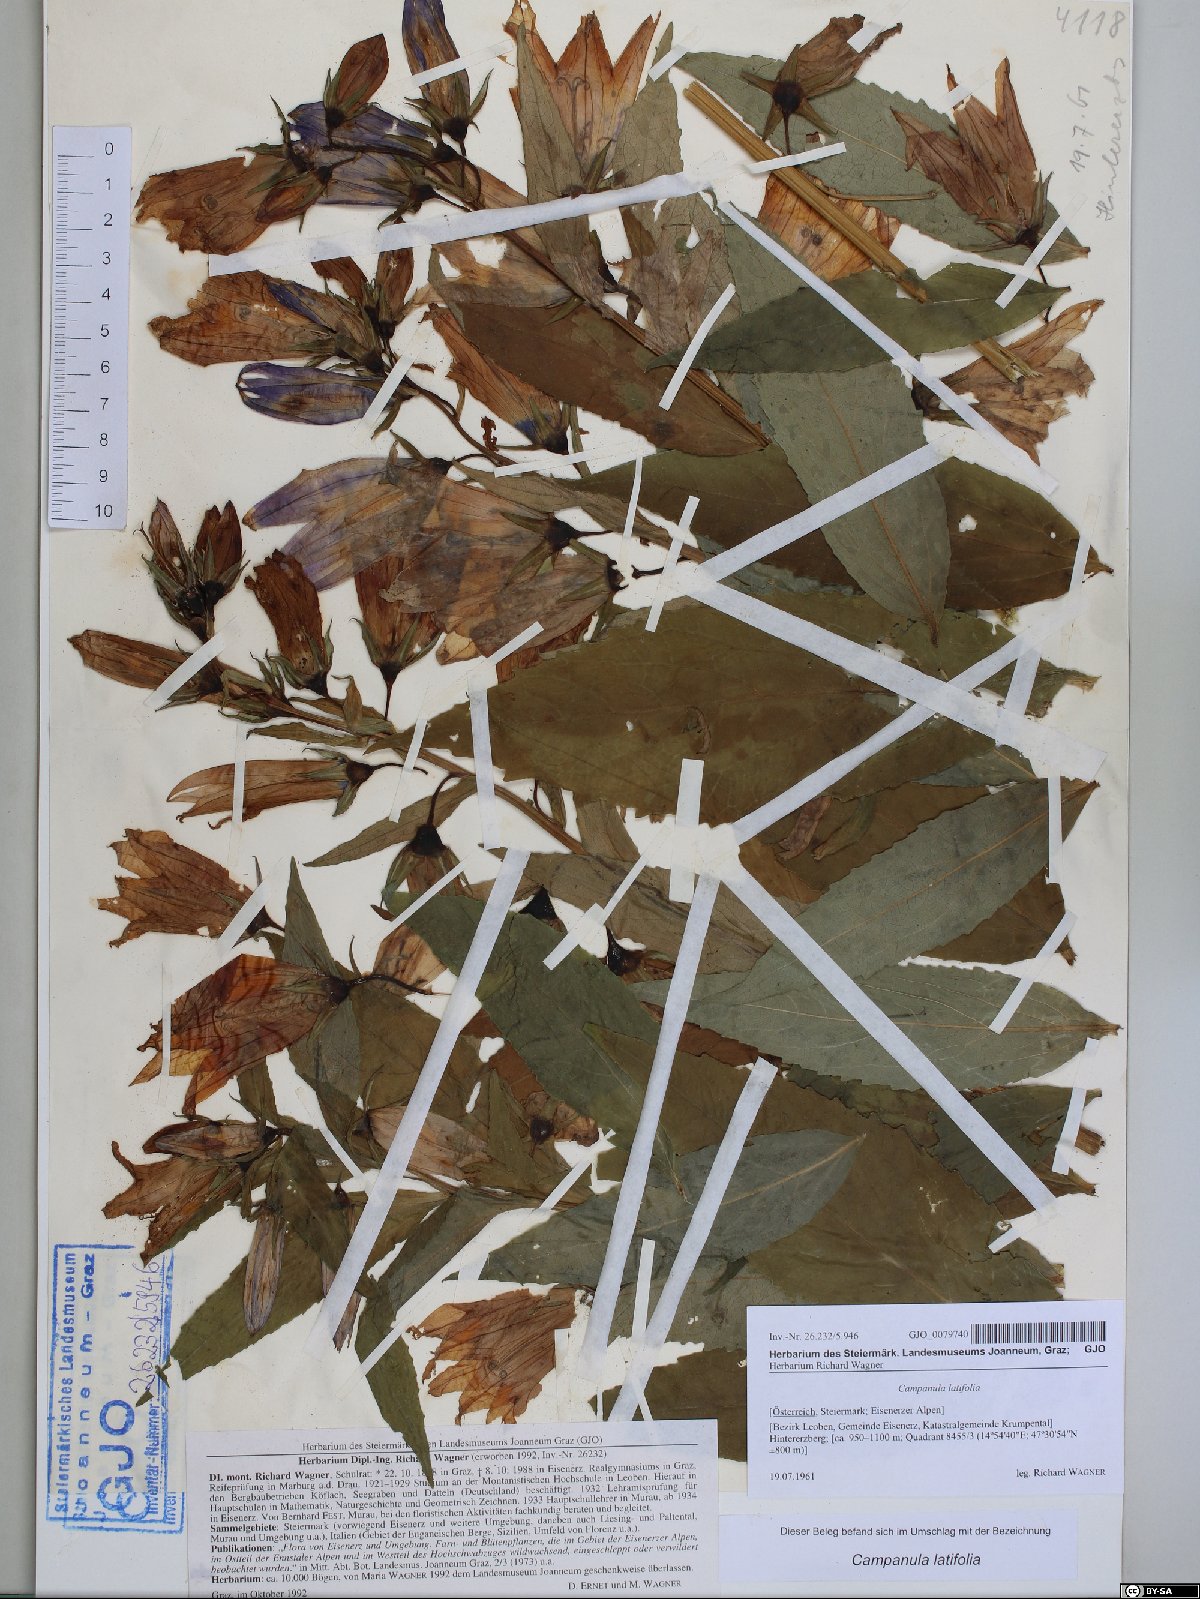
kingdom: Plantae
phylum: Tracheophyta
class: Magnoliopsida
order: Asterales
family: Campanulaceae
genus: Campanula
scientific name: Campanula latifolia
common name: Giant bellflower
